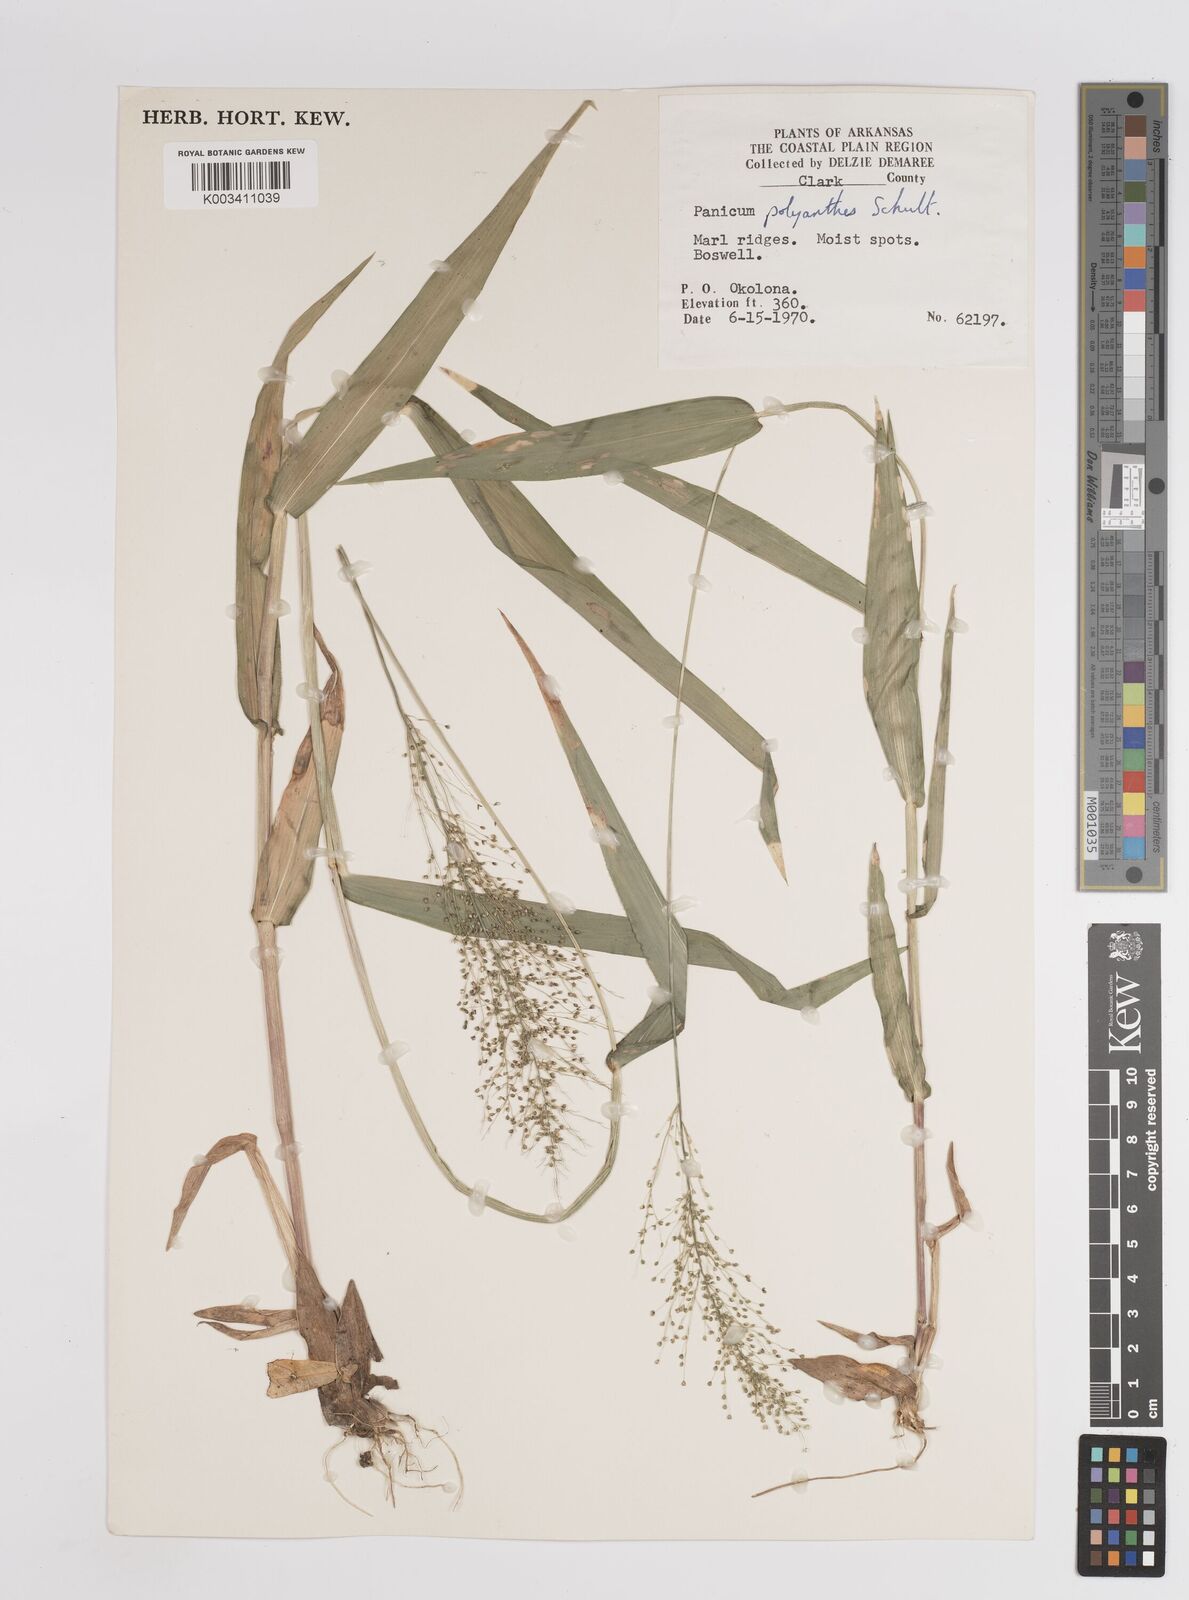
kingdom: Plantae
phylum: Tracheophyta
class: Liliopsida
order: Poales
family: Poaceae
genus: Dichanthelium
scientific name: Dichanthelium polyanthes
